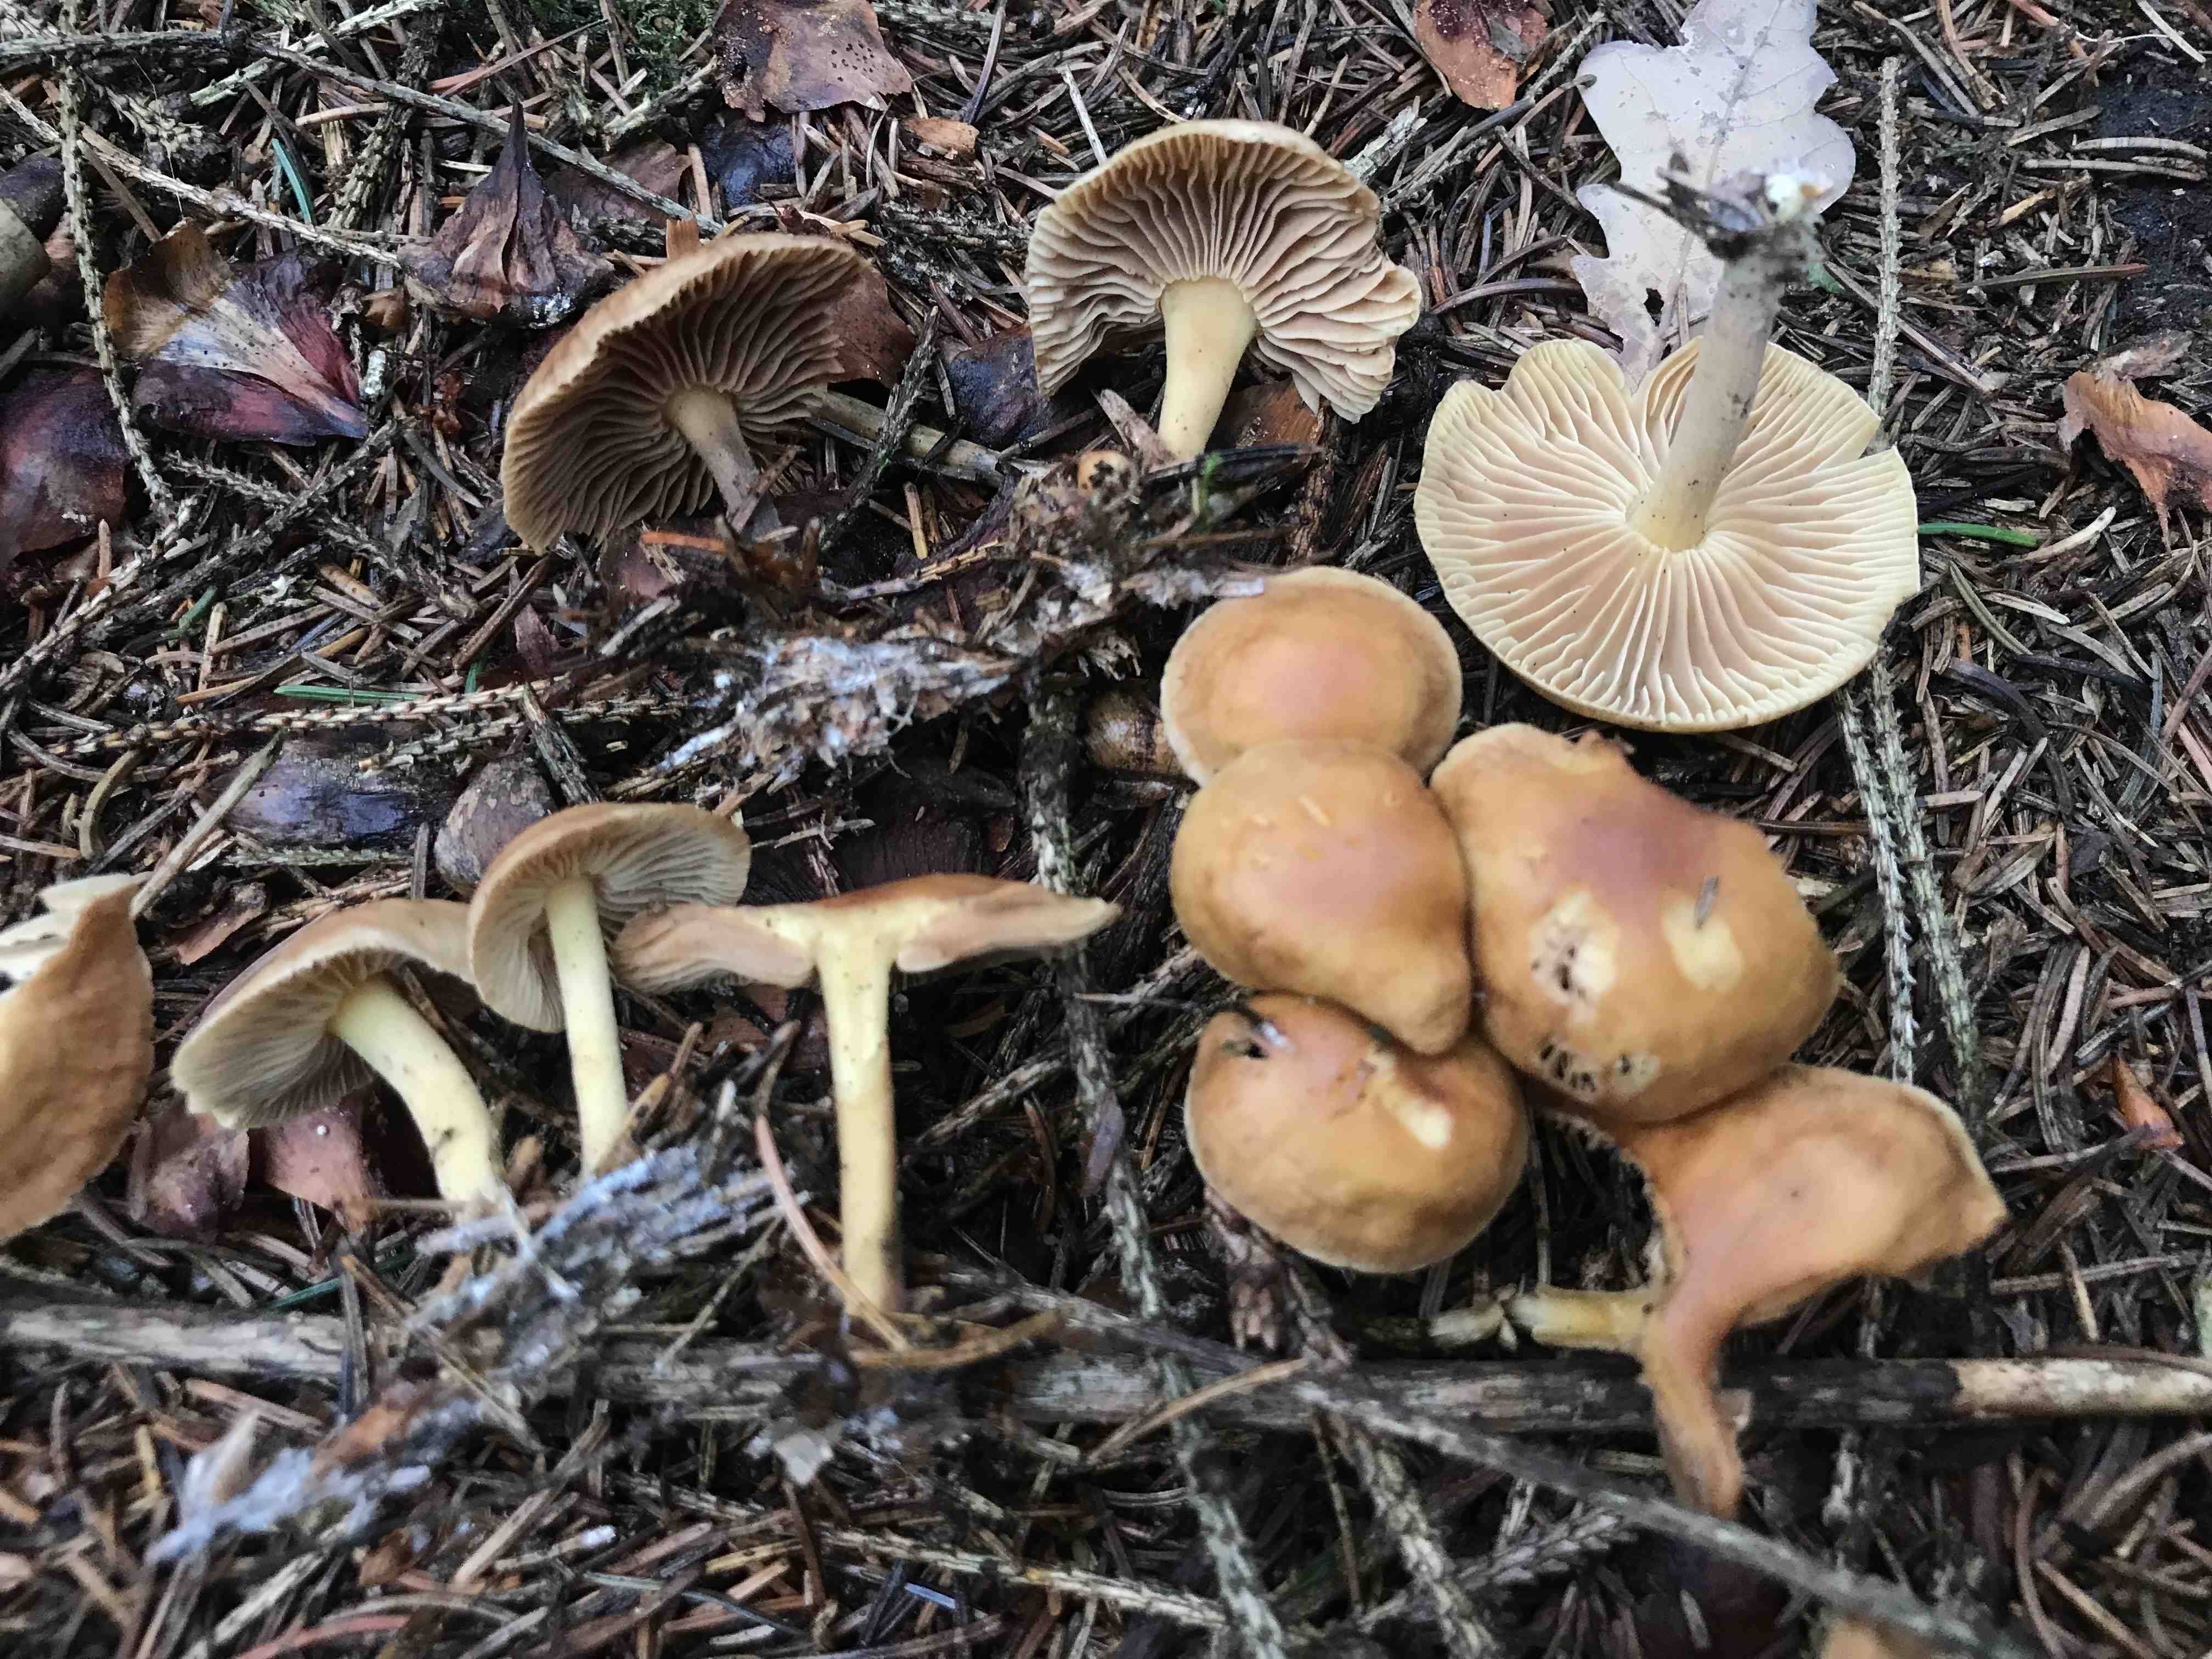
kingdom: Fungi
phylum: Basidiomycota
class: Agaricomycetes
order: Agaricales
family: Omphalotaceae
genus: Collybiopsis
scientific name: Collybiopsis peronata
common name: bestøvlet fladhat
